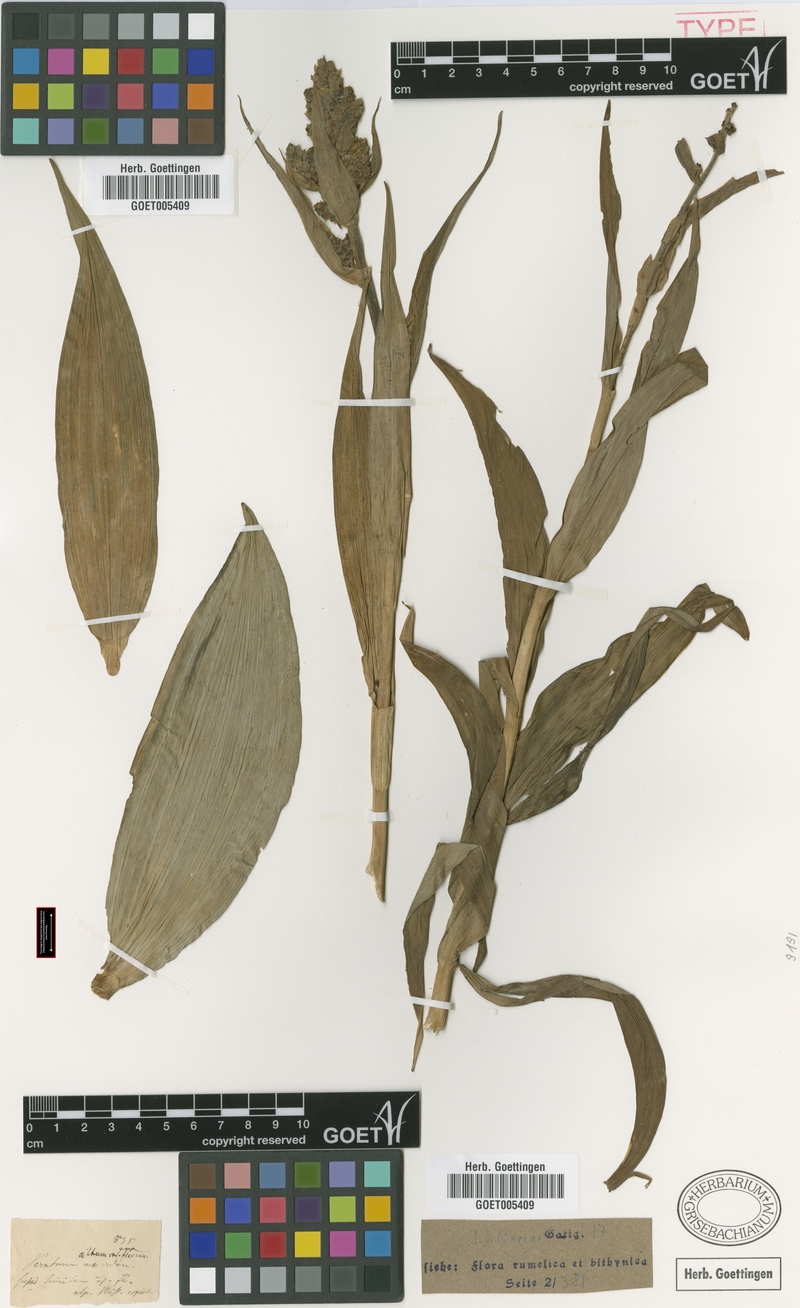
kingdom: Plantae
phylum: Tracheophyta
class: Liliopsida
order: Liliales
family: Melanthiaceae
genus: Veratrum
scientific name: Veratrum album
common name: White veratrum
